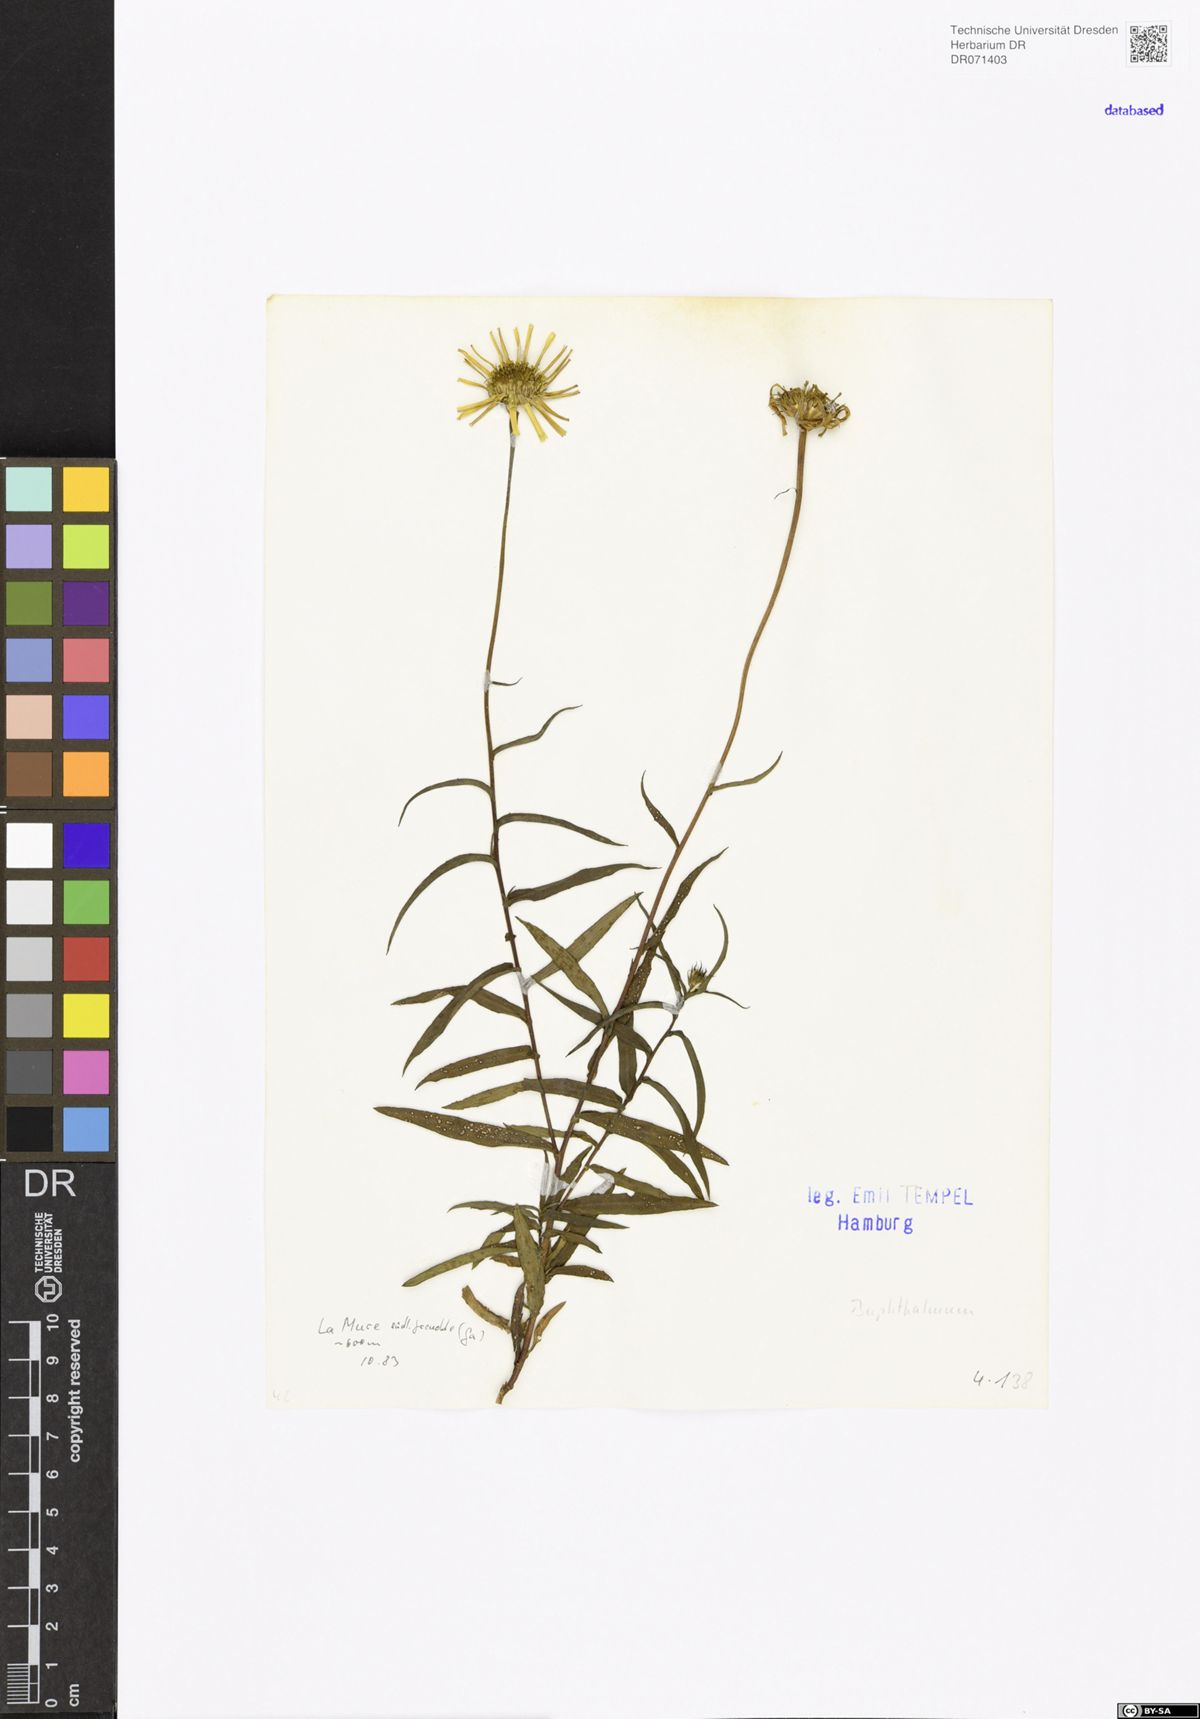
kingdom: Plantae
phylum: Tracheophyta
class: Magnoliopsida
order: Asterales
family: Asteraceae
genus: Buphthalmum
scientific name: Buphthalmum
